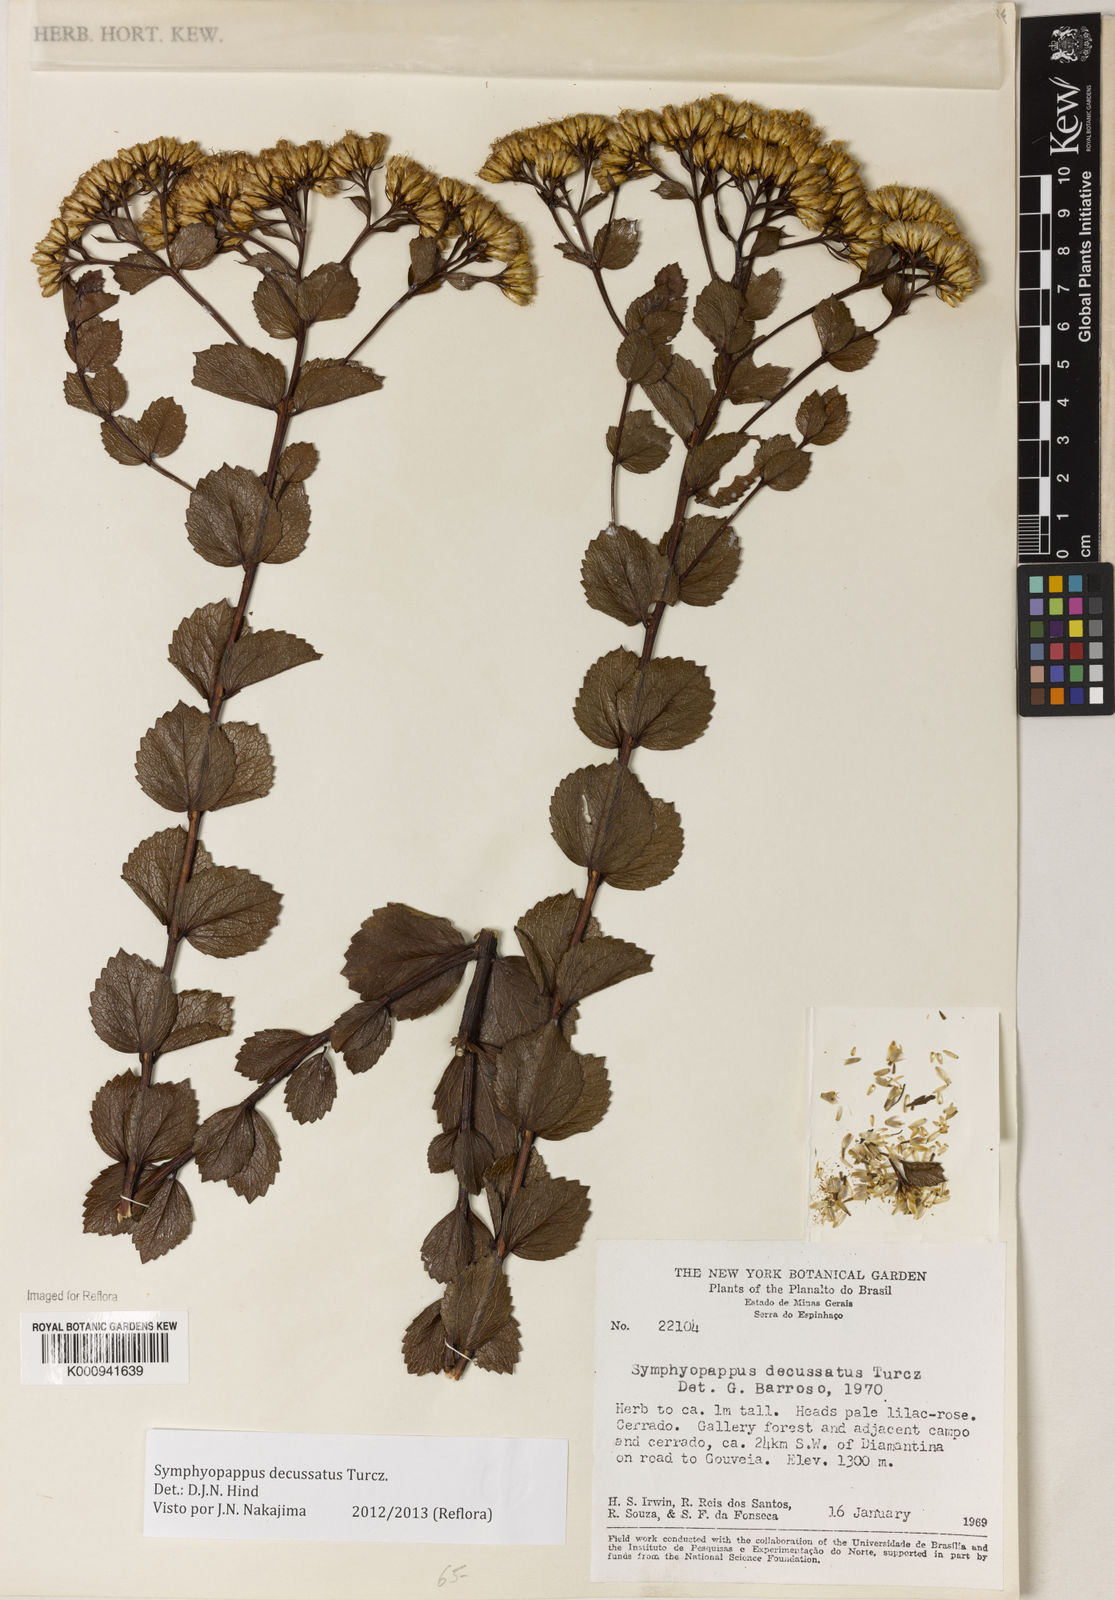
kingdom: Plantae
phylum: Tracheophyta
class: Magnoliopsida
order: Asterales
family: Asteraceae
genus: Symphyopappus
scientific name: Symphyopappus decussatus
